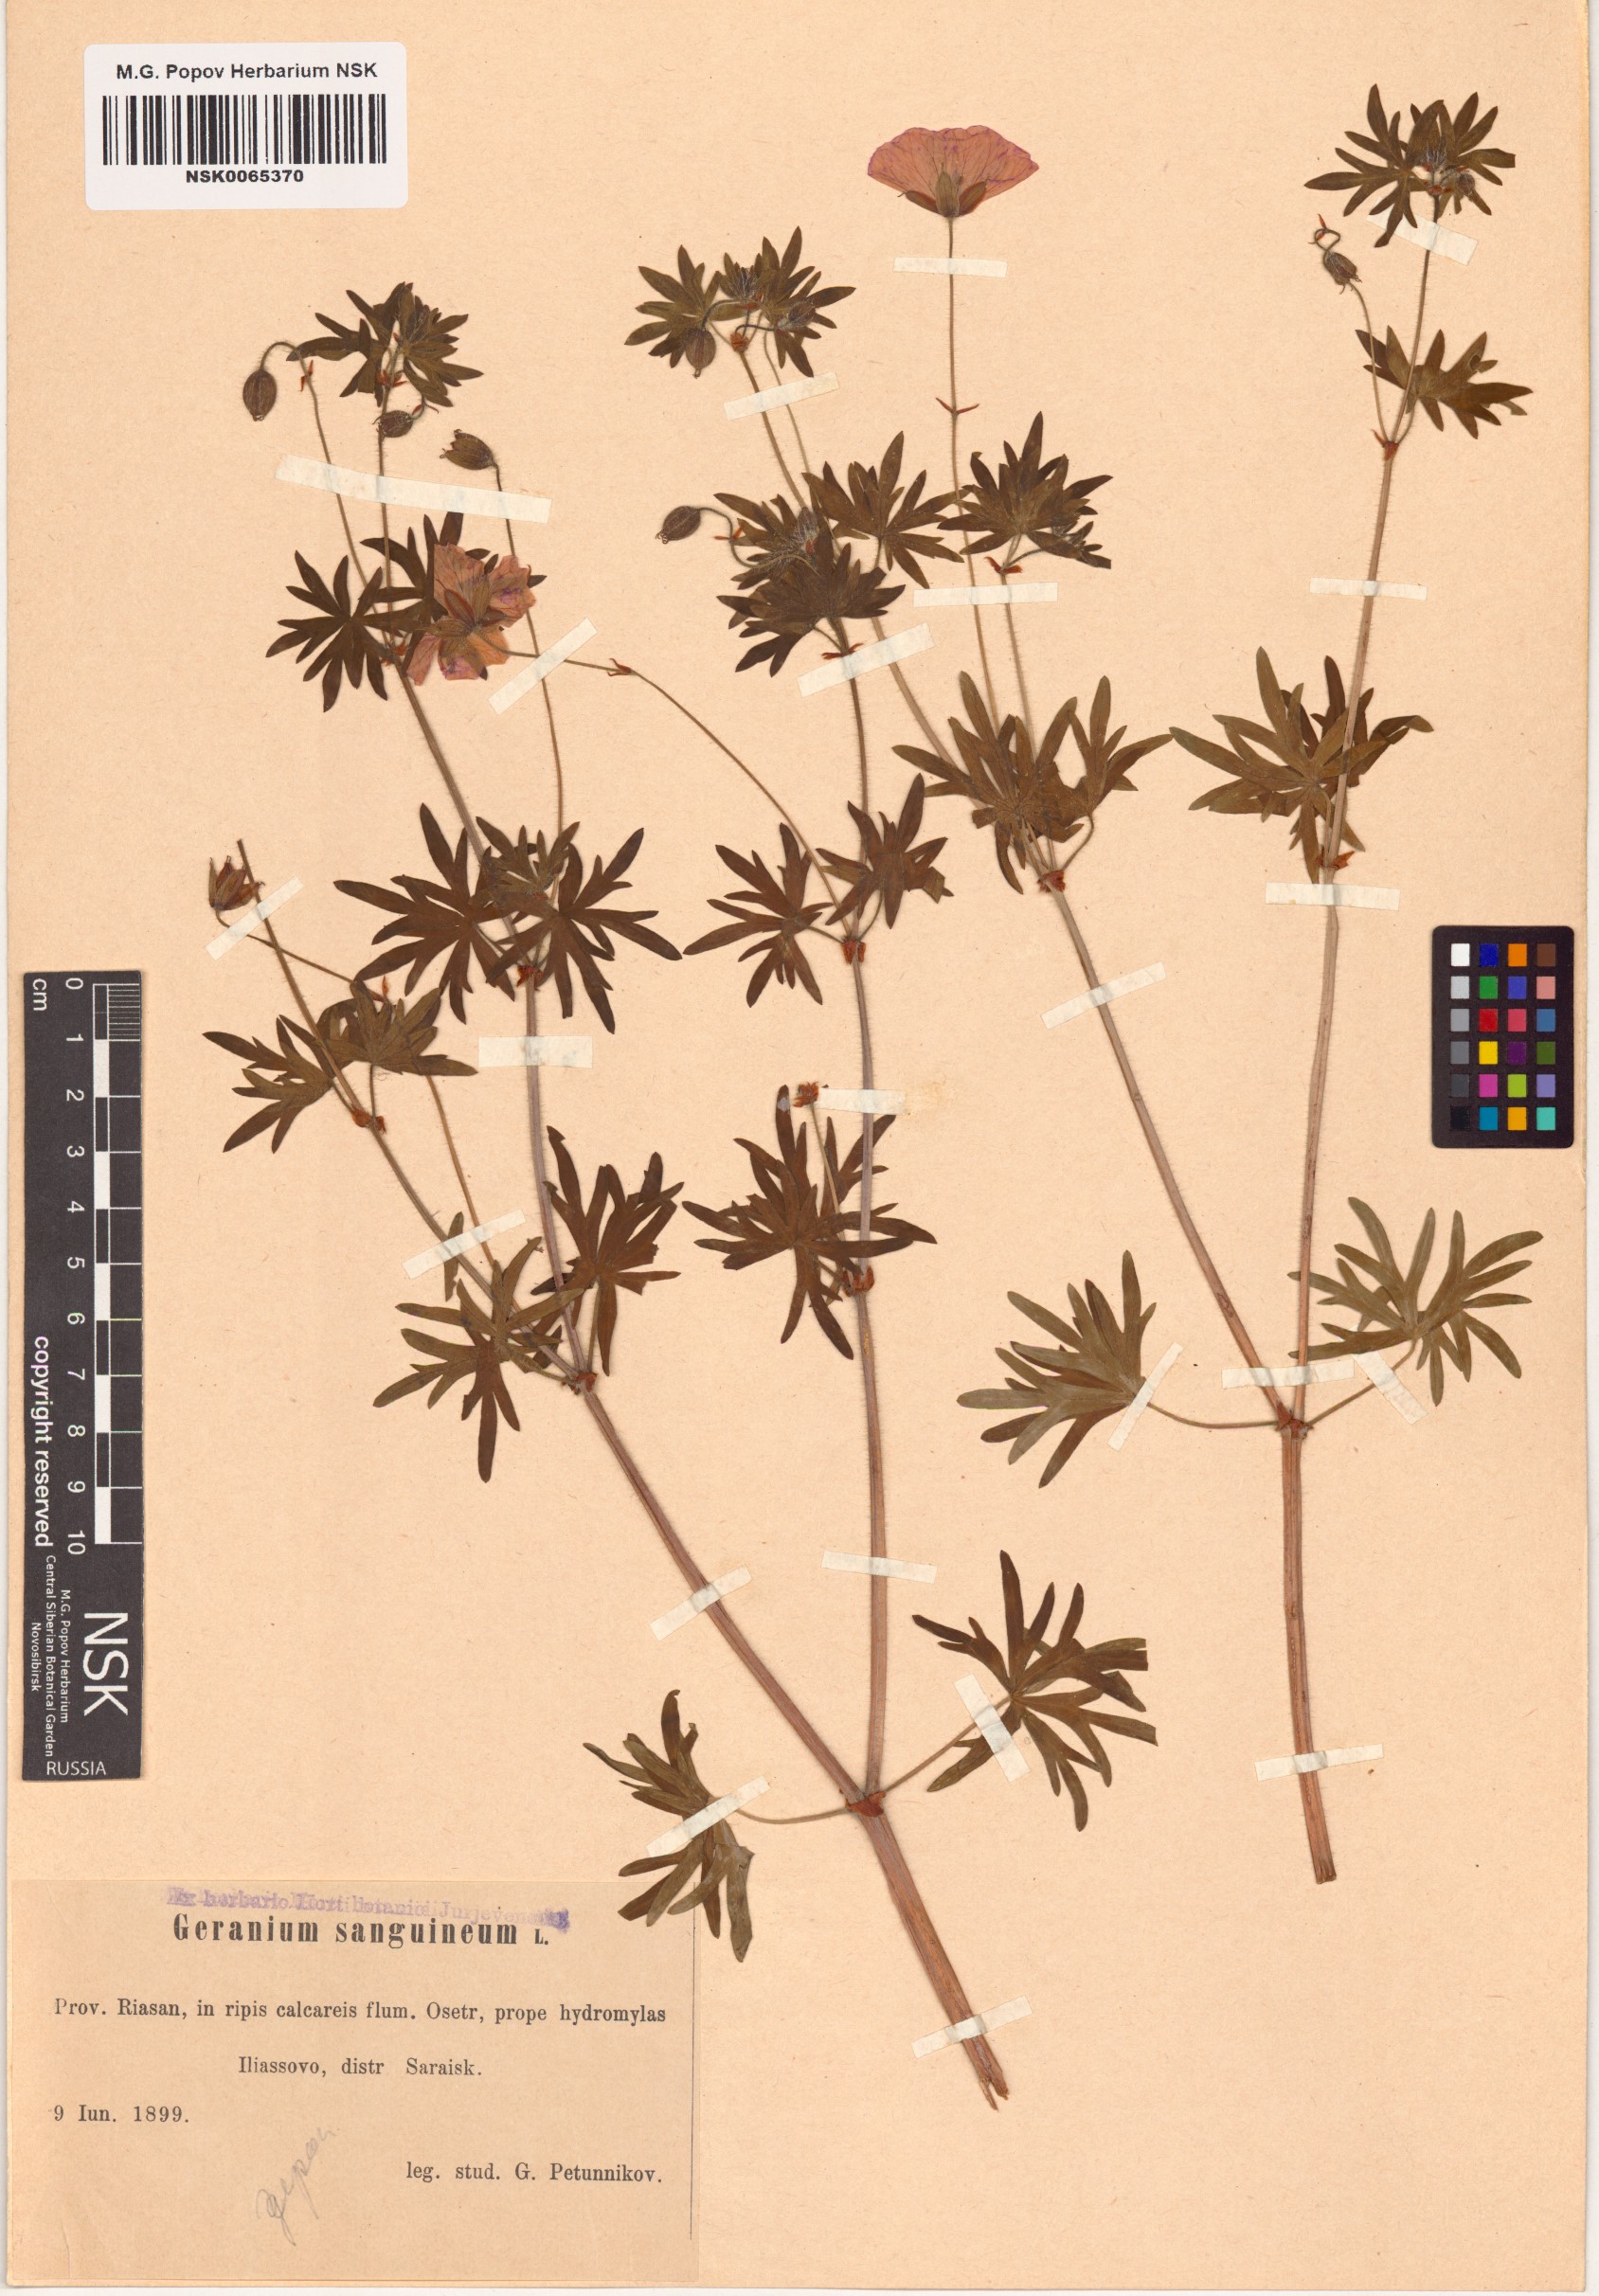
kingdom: Plantae
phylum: Tracheophyta
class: Magnoliopsida
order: Geraniales
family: Geraniaceae
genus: Geranium
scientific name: Geranium sanguineum
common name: Bloody crane's-bill
